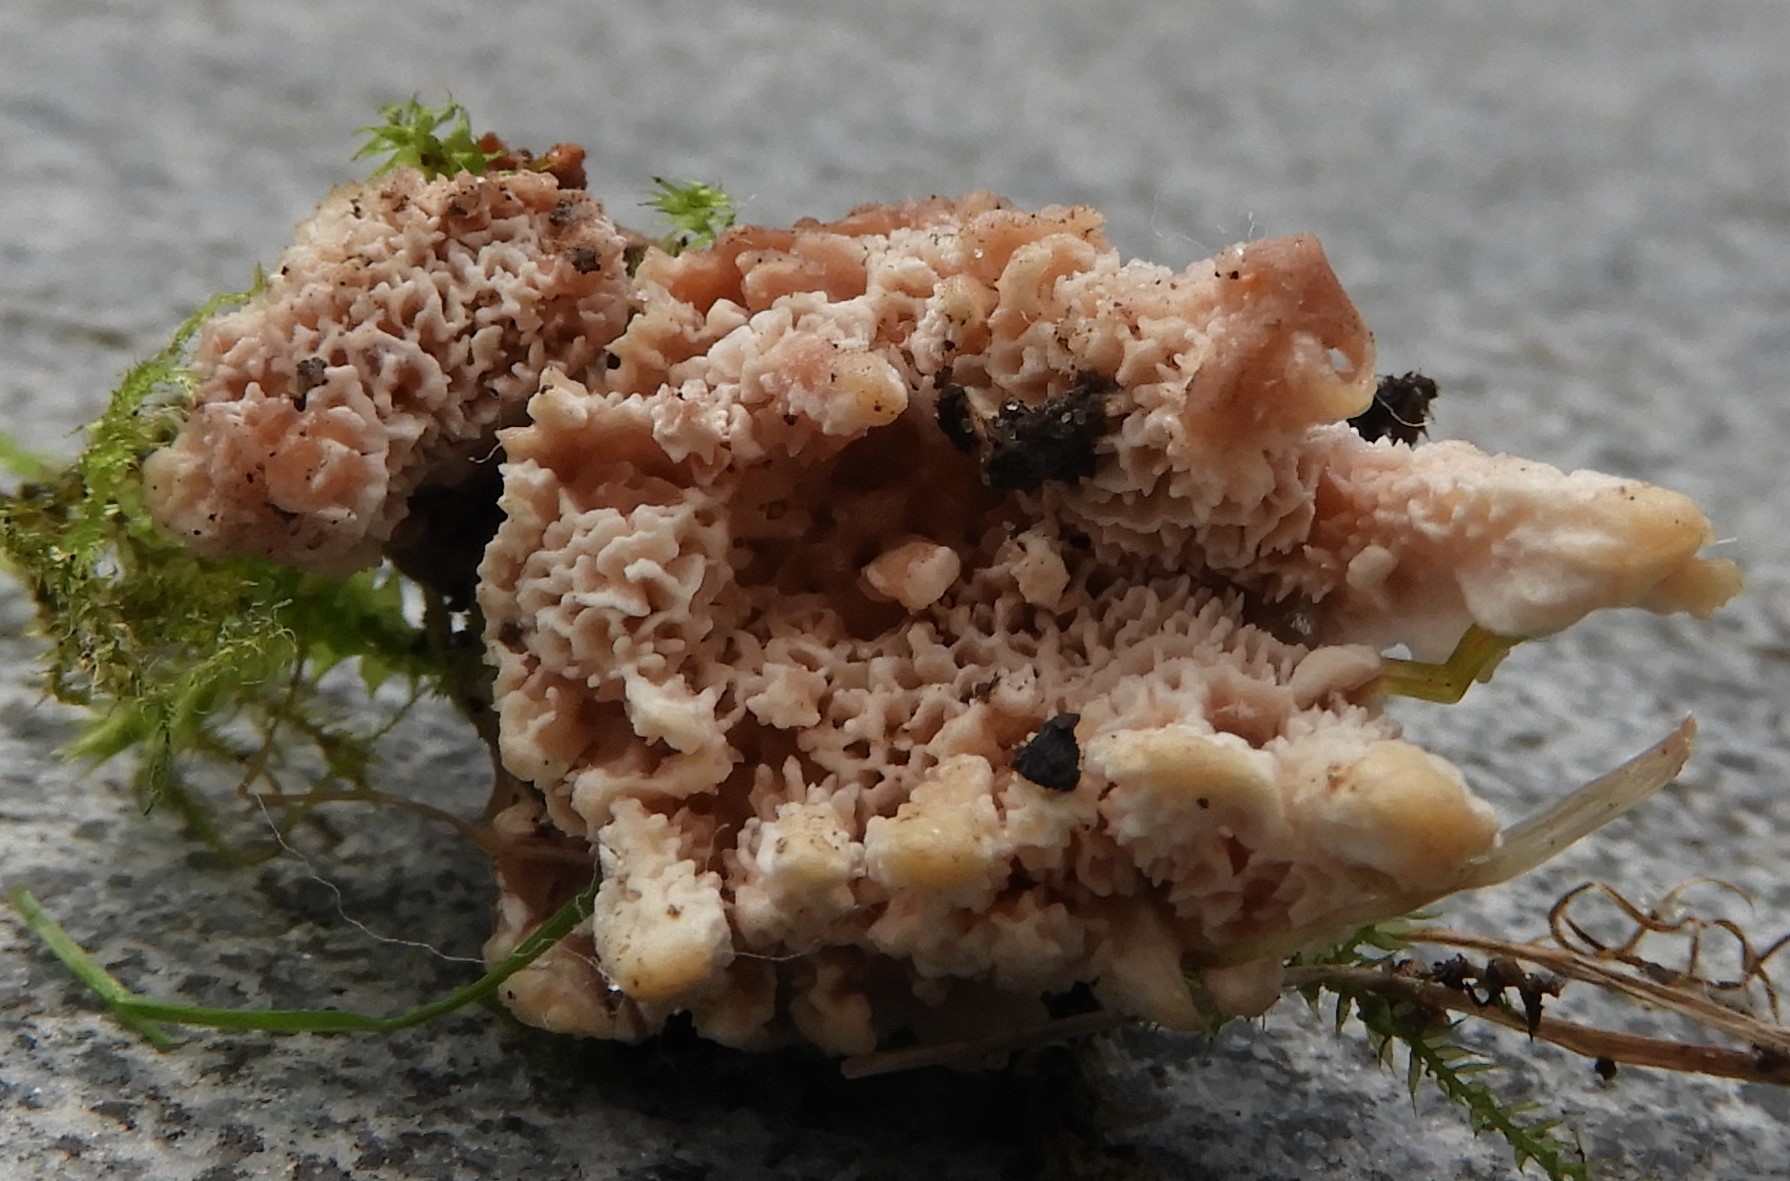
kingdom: Fungi
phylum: Basidiomycota
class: Agaricomycetes
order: Polyporales
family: Podoscyphaceae
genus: Abortiporus
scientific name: Abortiporus biennis
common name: rødmende pjalteporesvamp
